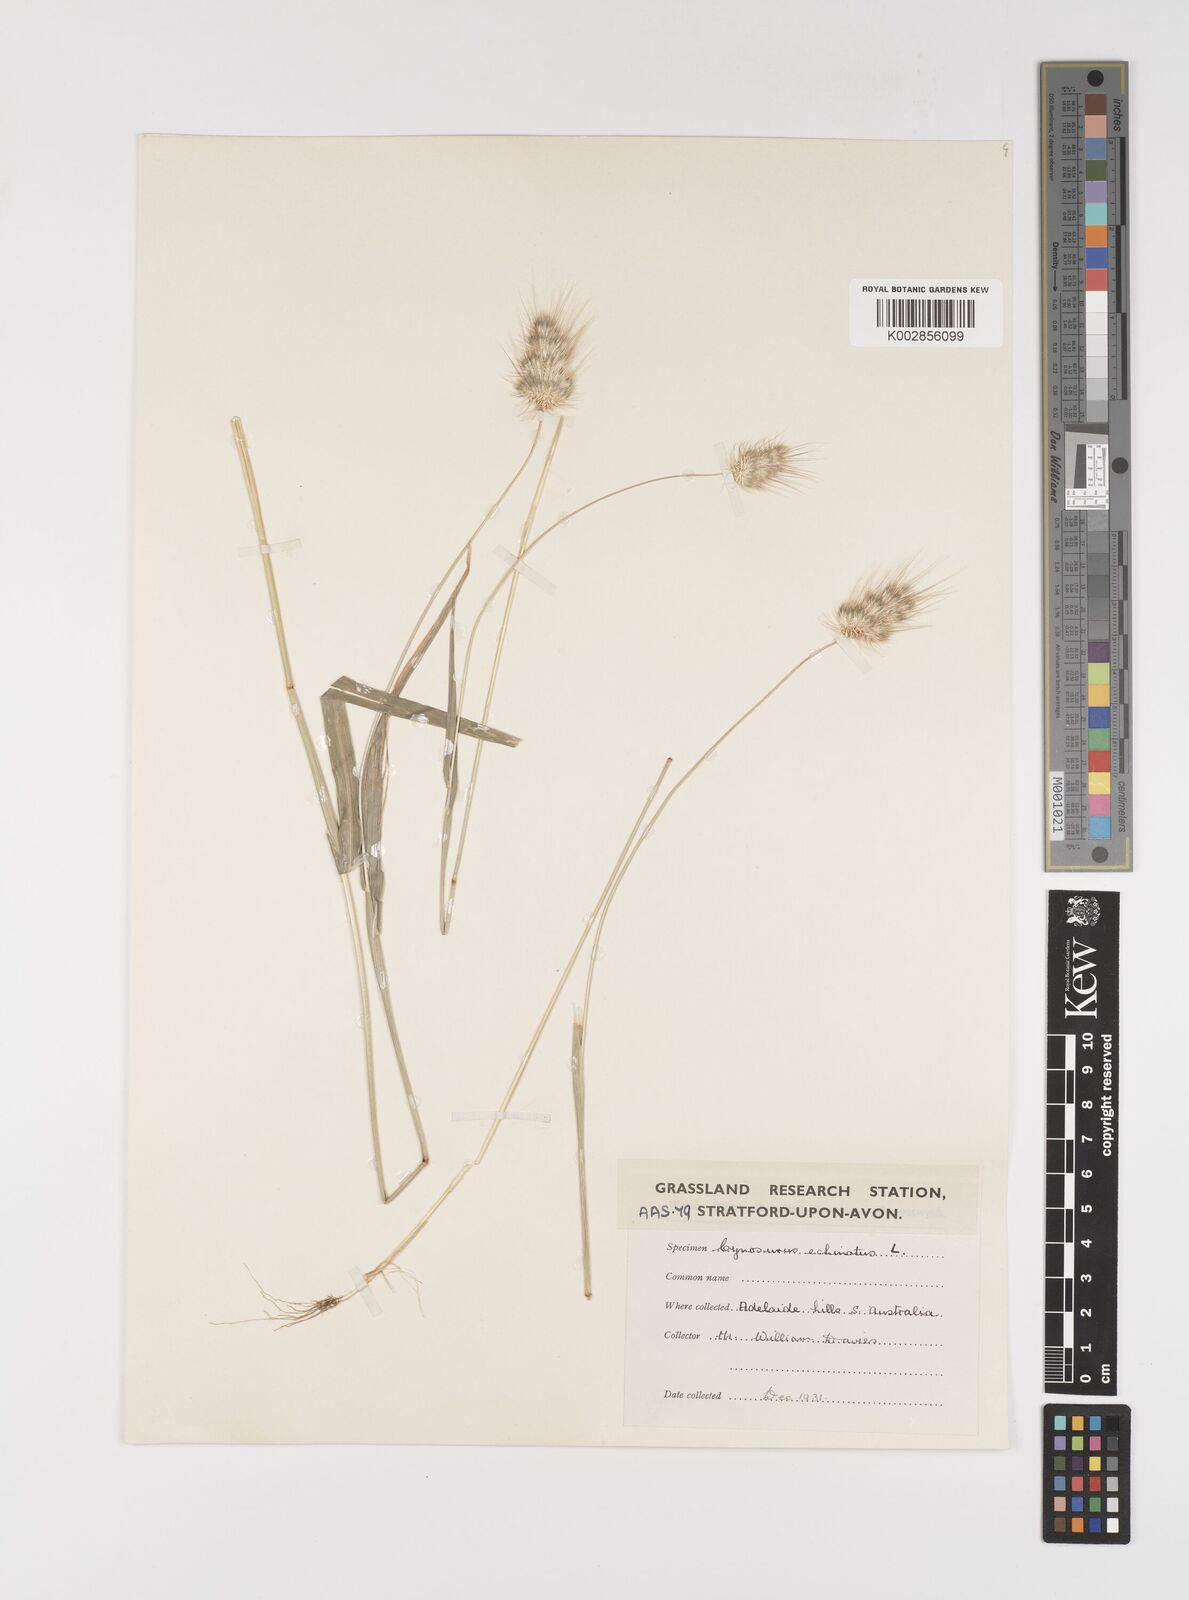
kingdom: Plantae
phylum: Tracheophyta
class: Liliopsida
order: Poales
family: Poaceae
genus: Cynosurus
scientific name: Cynosurus echinatus
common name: Rough dog's-tail
